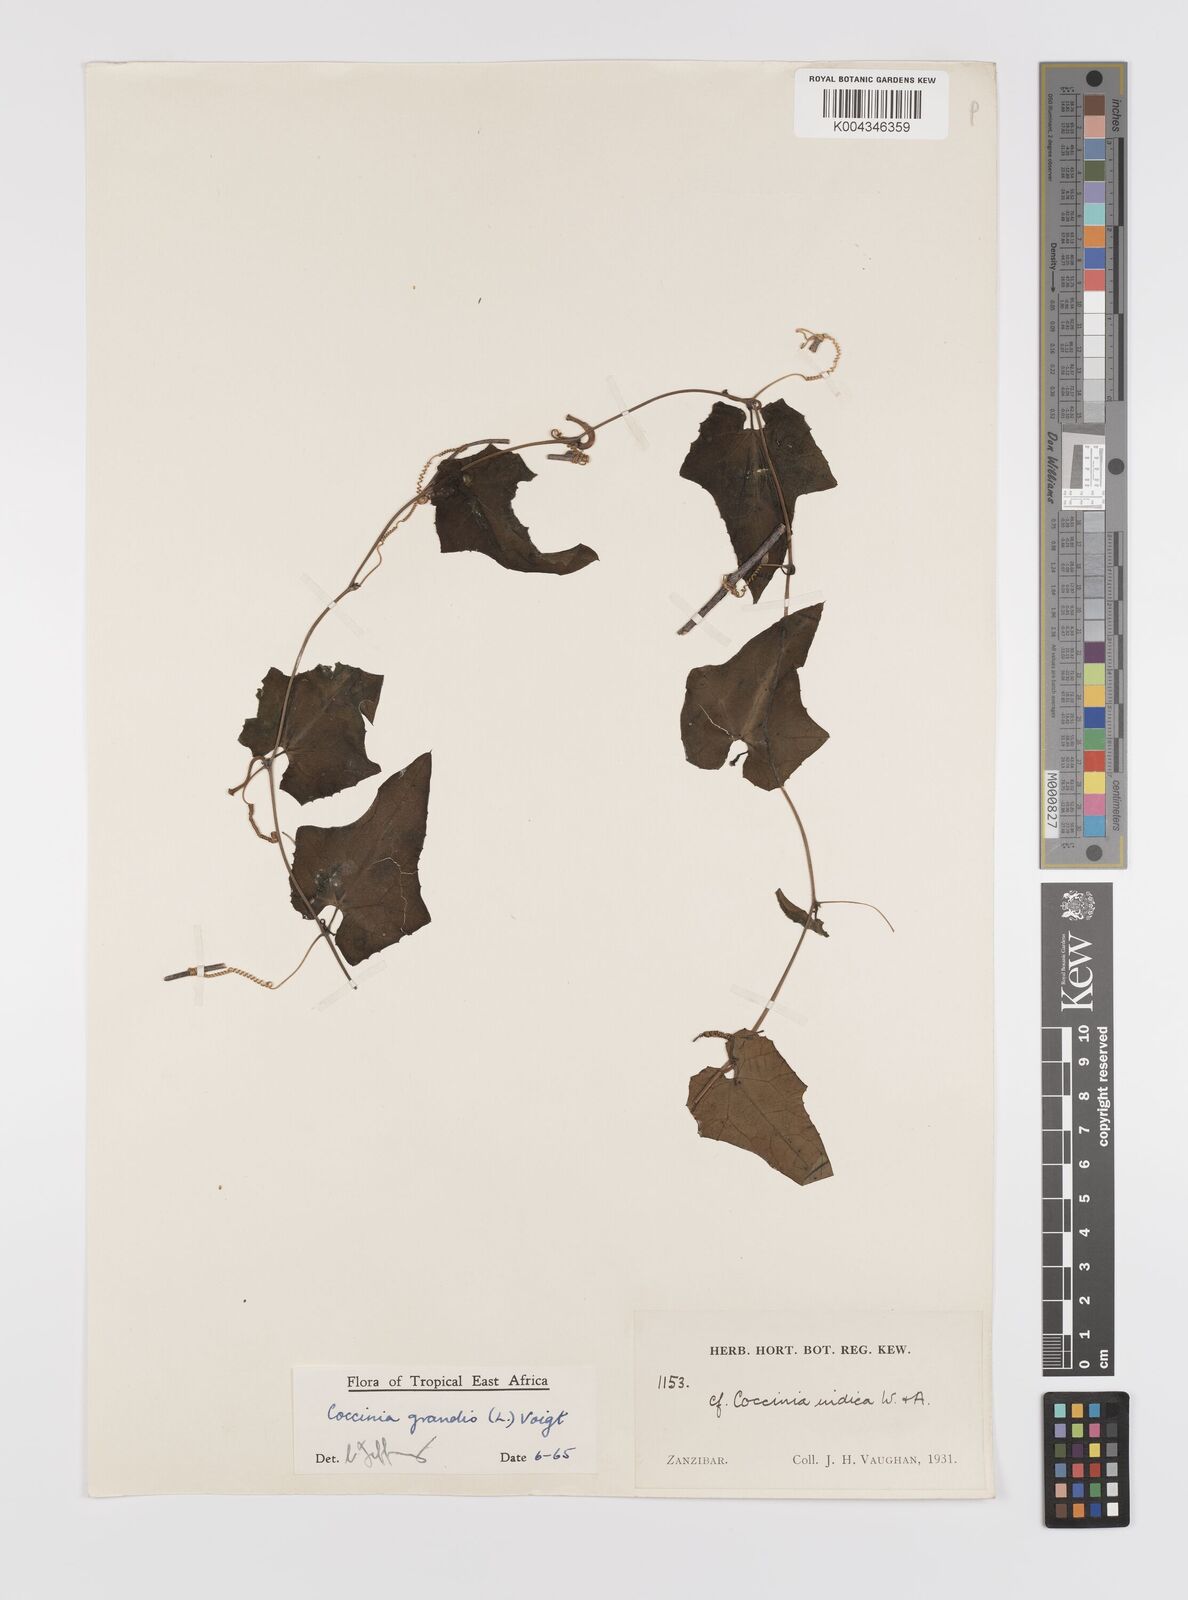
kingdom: Plantae
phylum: Tracheophyta
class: Magnoliopsida
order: Cucurbitales
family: Cucurbitaceae
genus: Coccinia
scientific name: Coccinia grandis
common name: Ivy gourd
